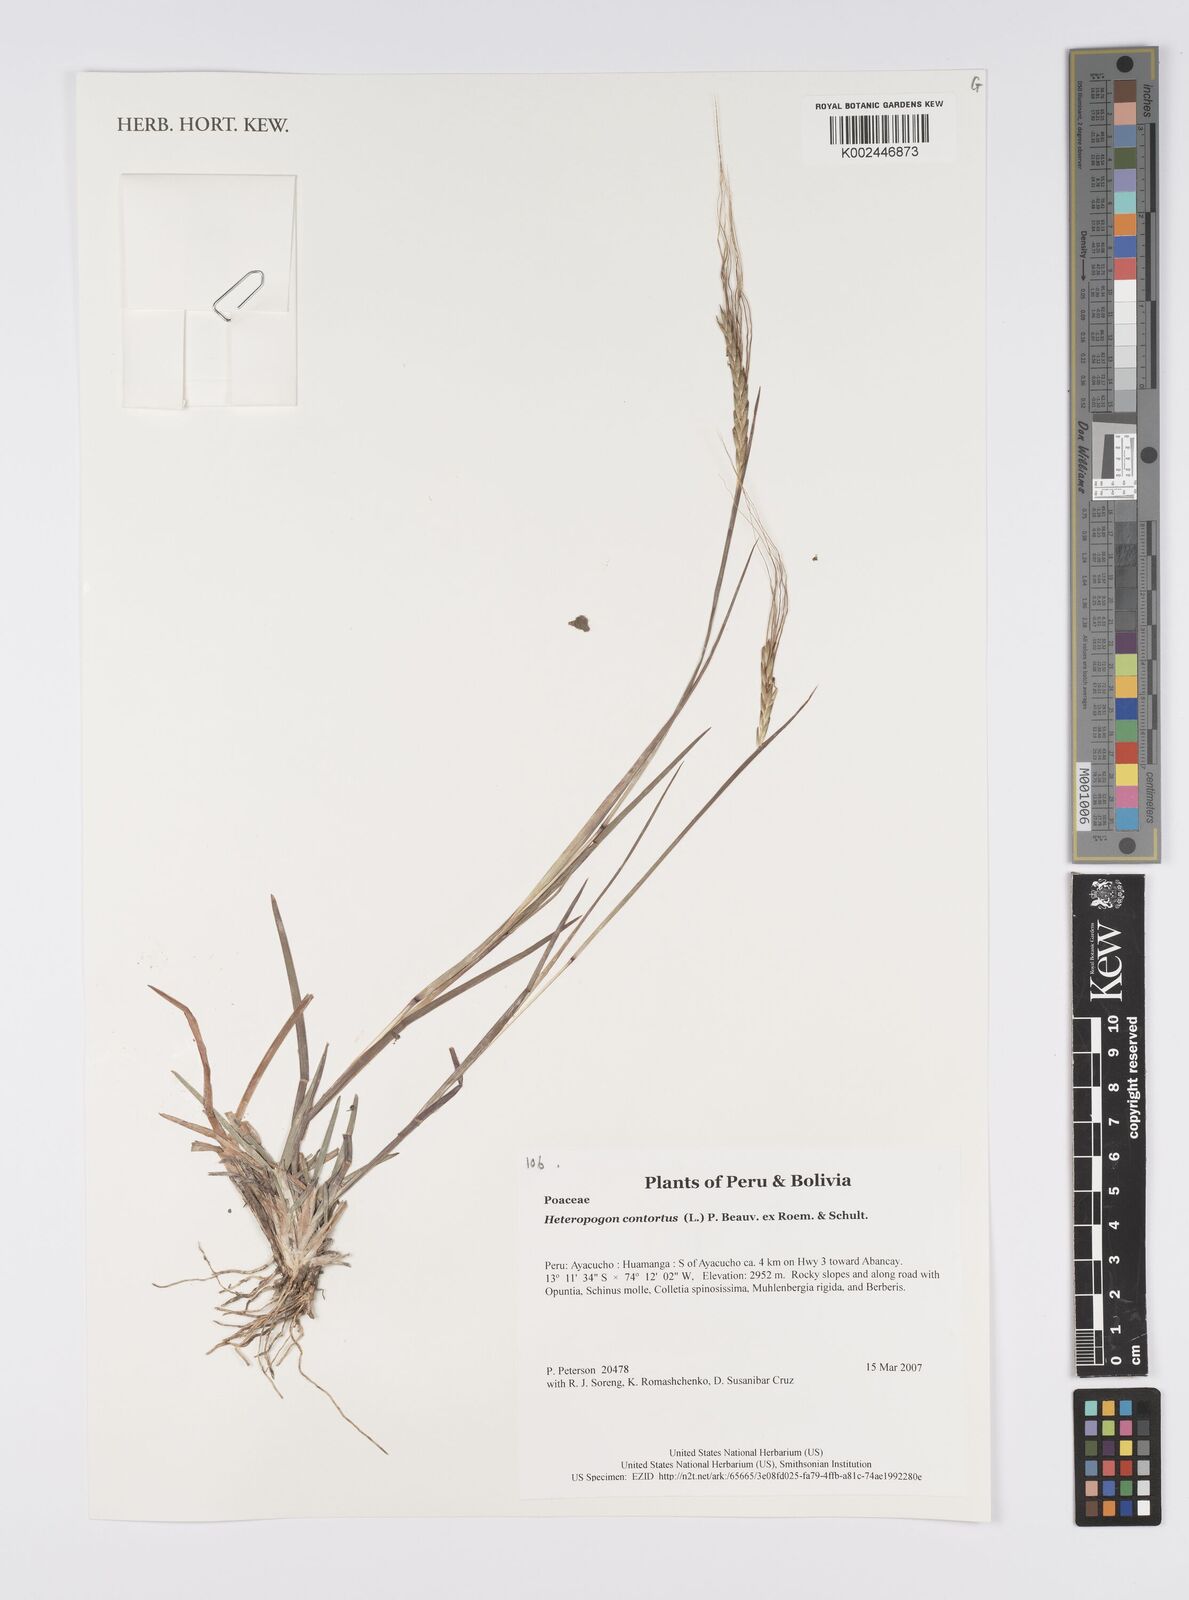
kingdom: Plantae
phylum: Tracheophyta
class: Liliopsida
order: Poales
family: Poaceae
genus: Heteropogon
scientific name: Heteropogon contortus
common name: Tanglehead
